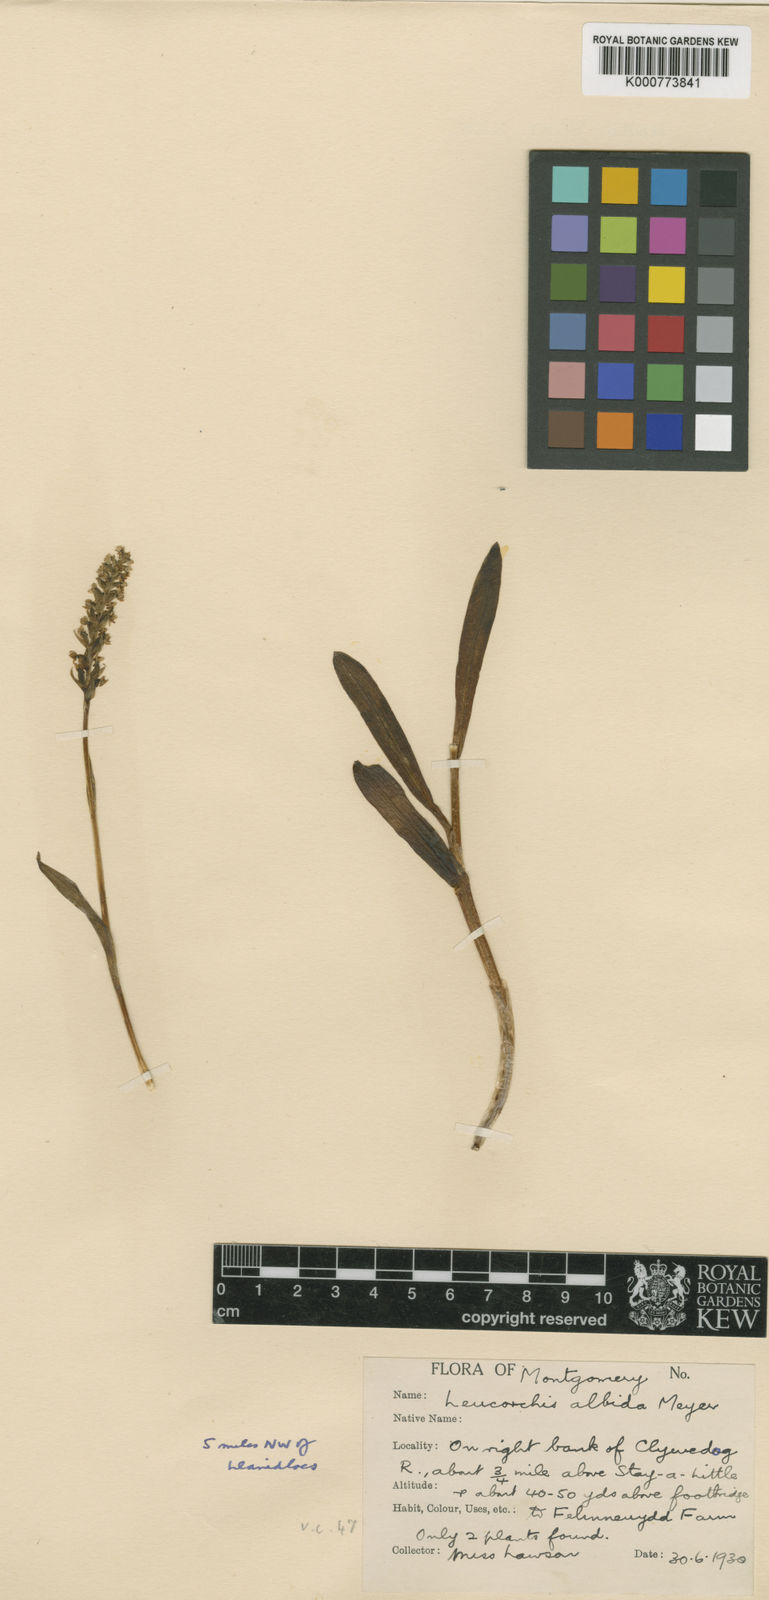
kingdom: Plantae
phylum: Tracheophyta
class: Liliopsida
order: Asparagales
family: Orchidaceae
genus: Pseudorchis
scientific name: Pseudorchis
